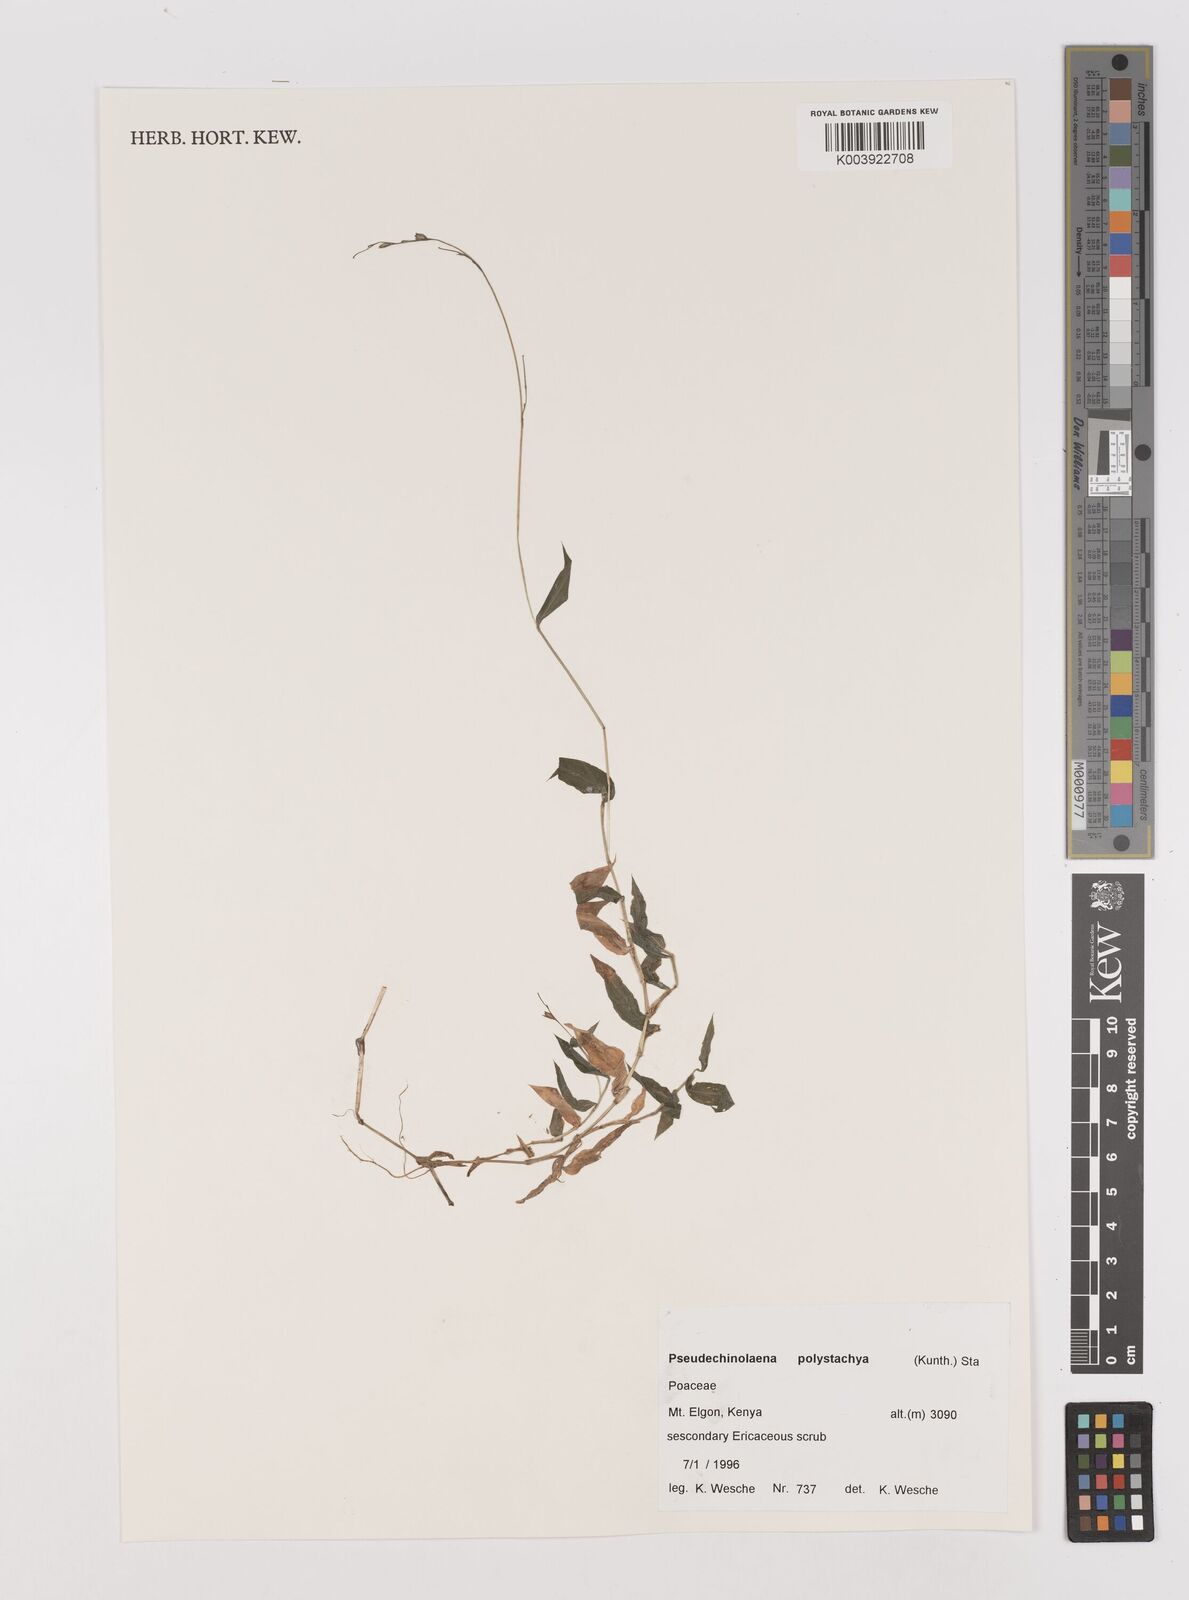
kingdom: Plantae
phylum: Tracheophyta
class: Liliopsida
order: Poales
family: Poaceae
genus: Pseudechinolaena
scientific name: Pseudechinolaena polystachya
